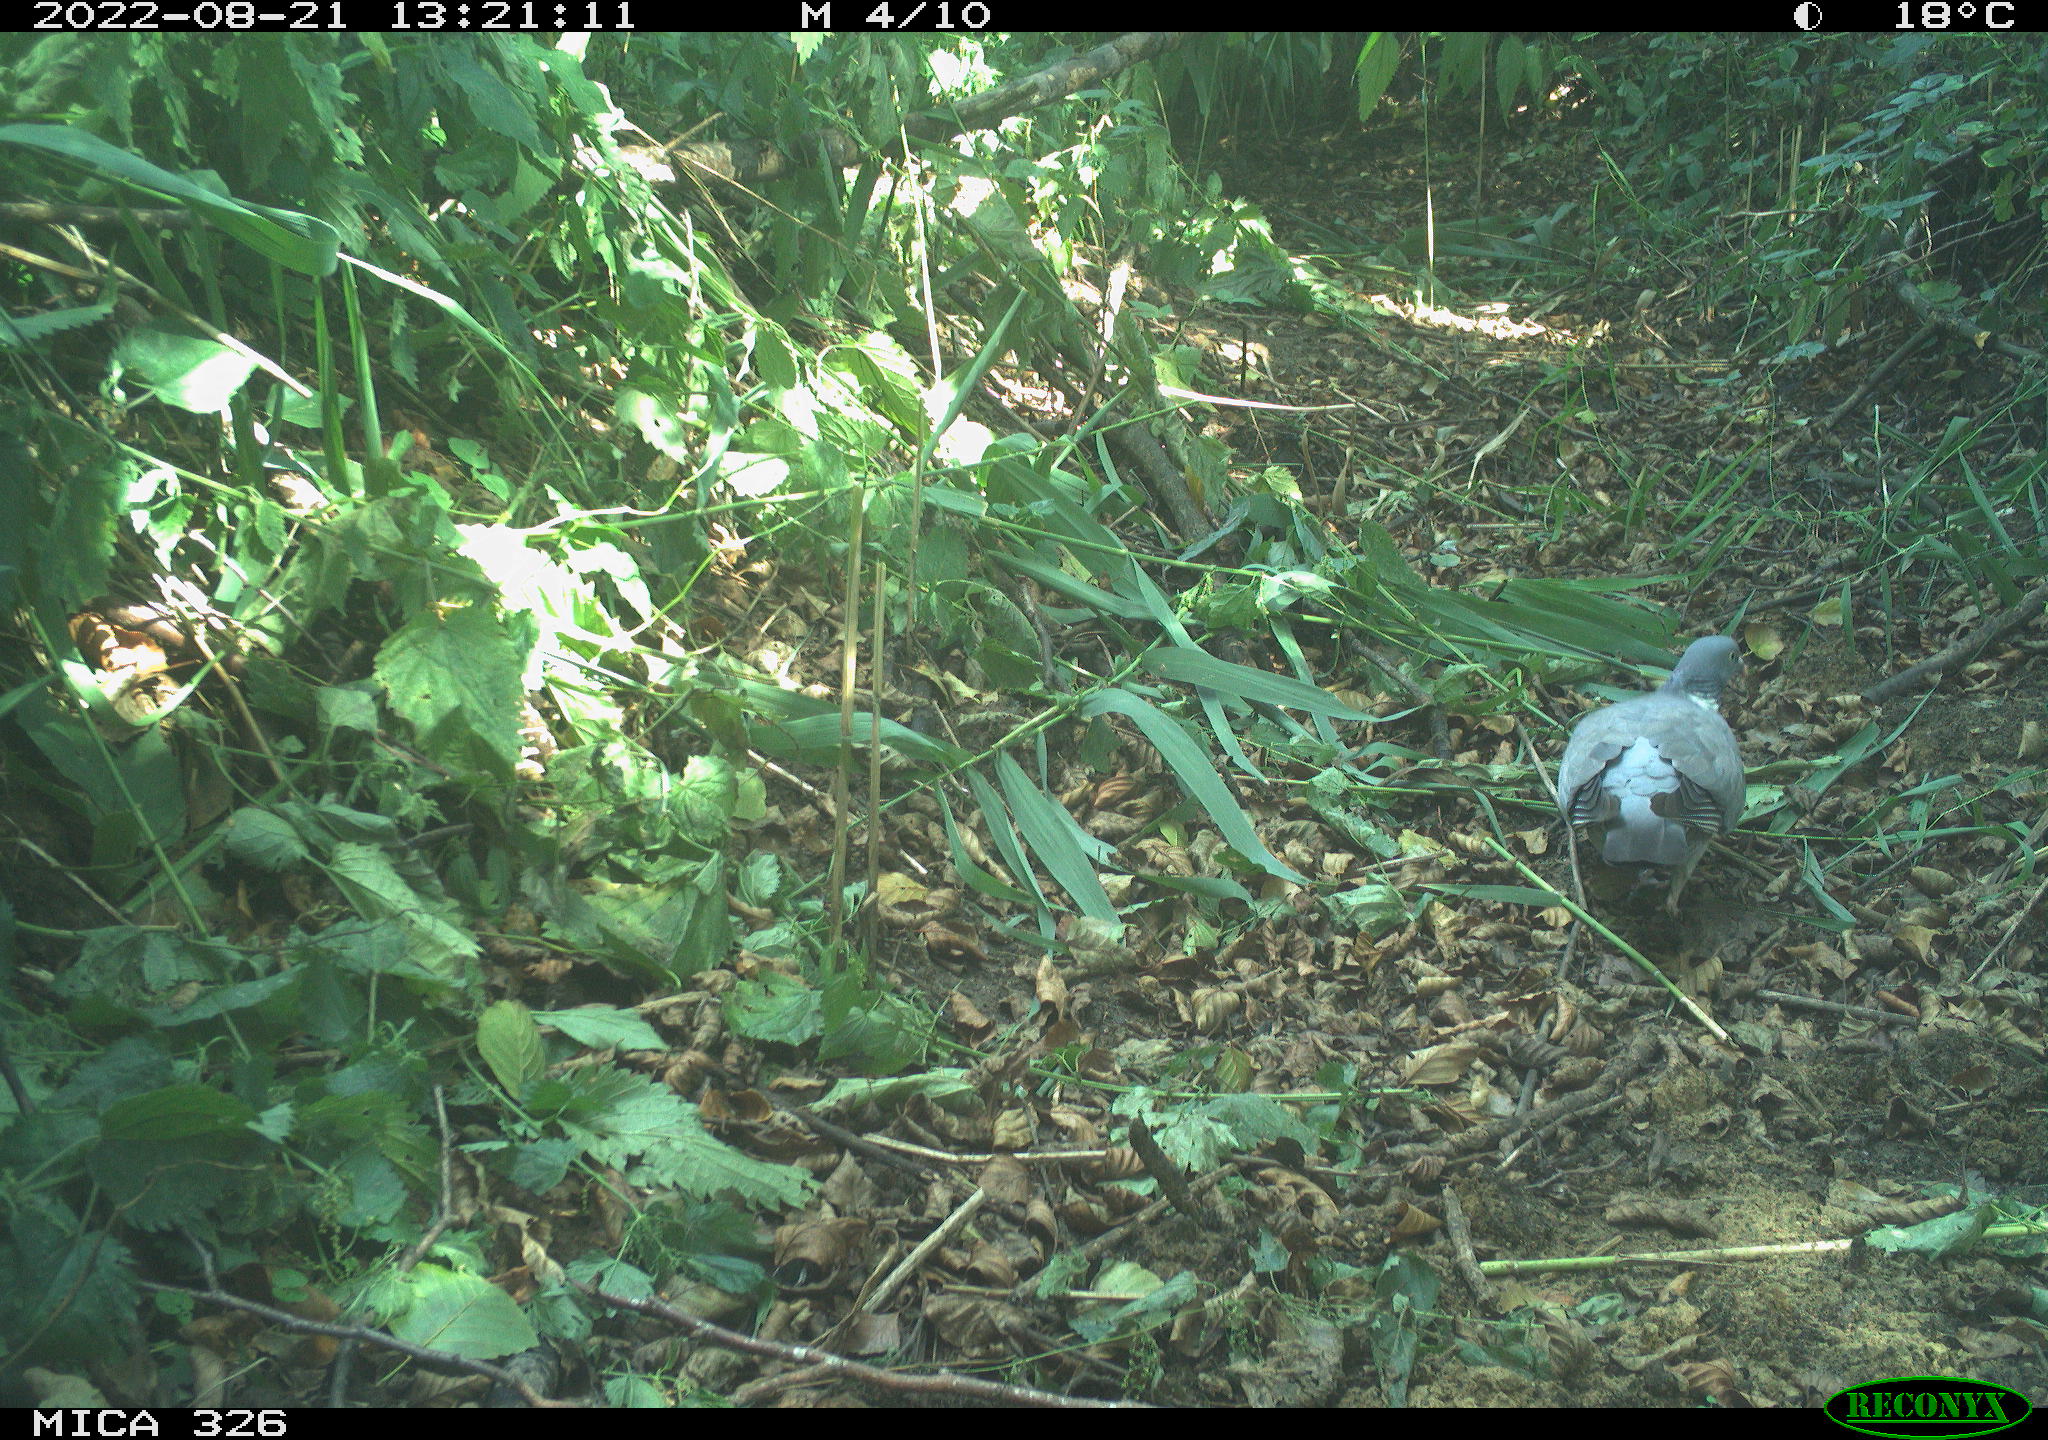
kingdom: Animalia
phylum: Chordata
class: Aves
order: Columbiformes
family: Columbidae
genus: Columba
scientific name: Columba palumbus
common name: Common wood pigeon
